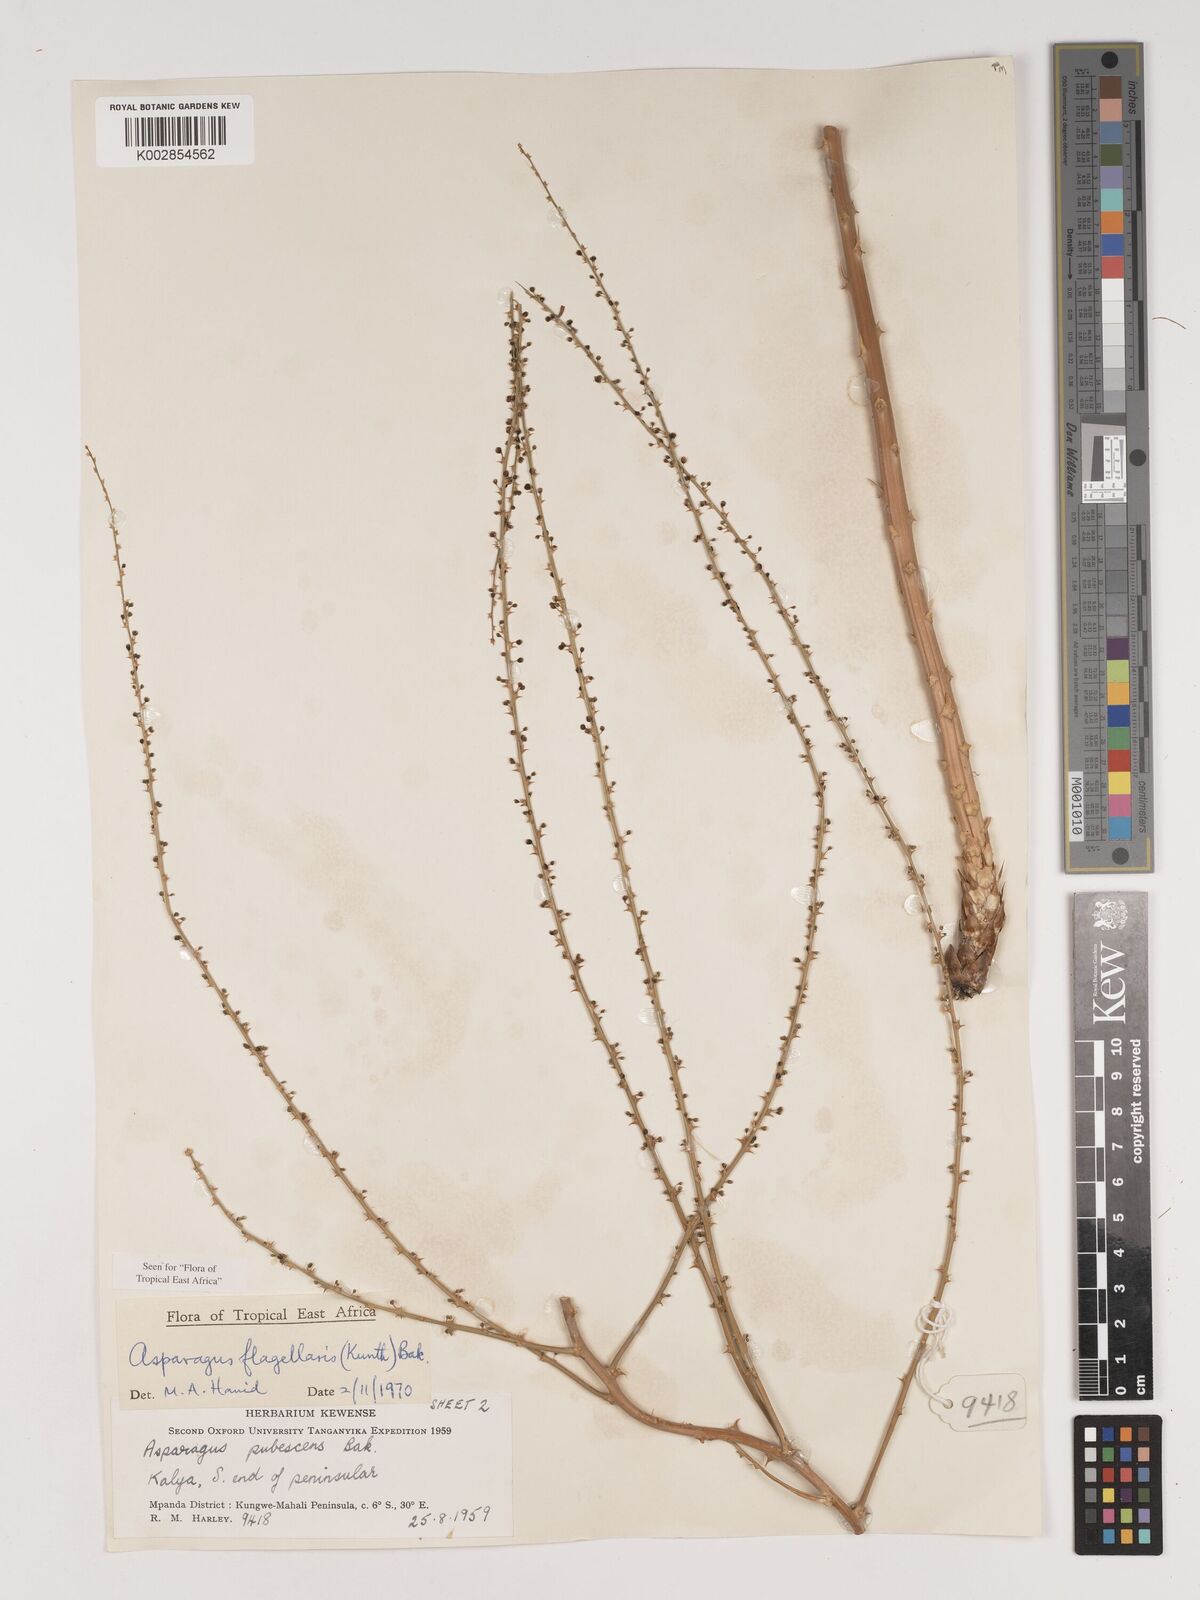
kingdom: Plantae
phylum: Tracheophyta
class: Liliopsida
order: Asparagales
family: Asparagaceae
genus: Asparagus
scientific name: Asparagus flagellaris
